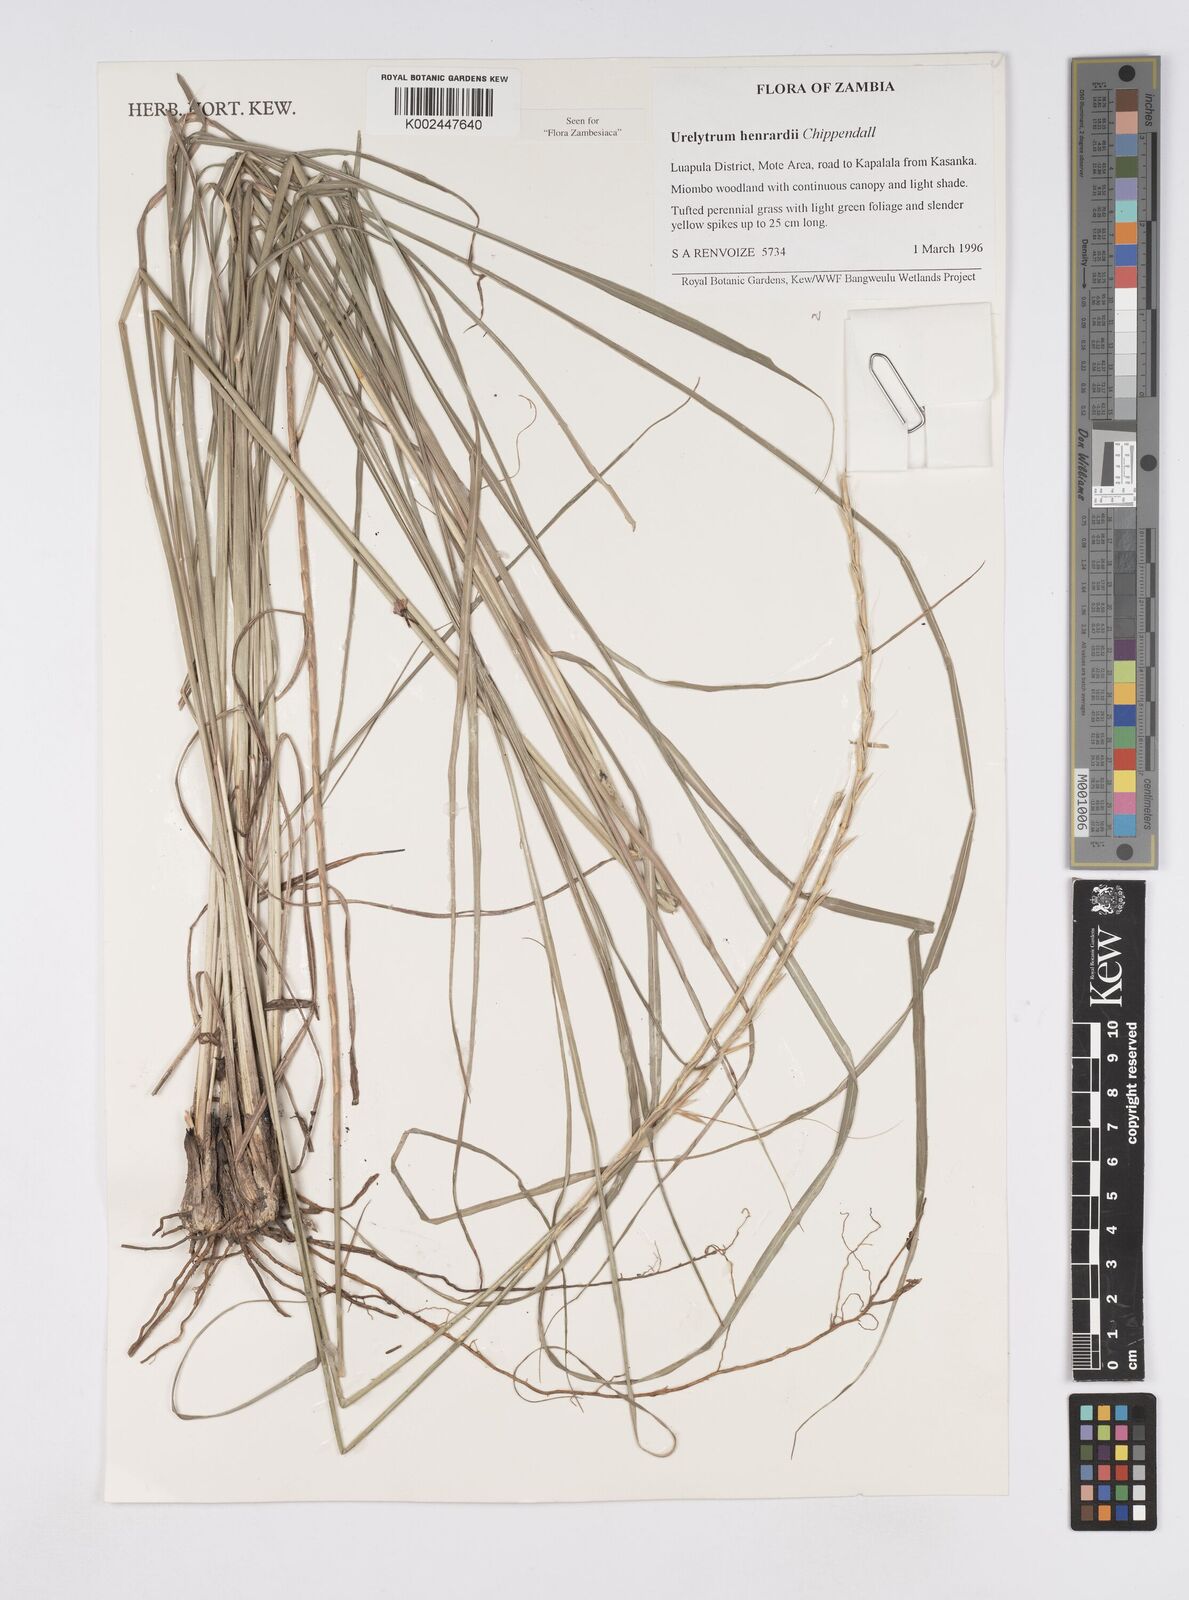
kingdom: Plantae
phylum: Tracheophyta
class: Liliopsida
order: Poales
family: Poaceae
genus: Urelytrum
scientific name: Urelytrum henrardii
